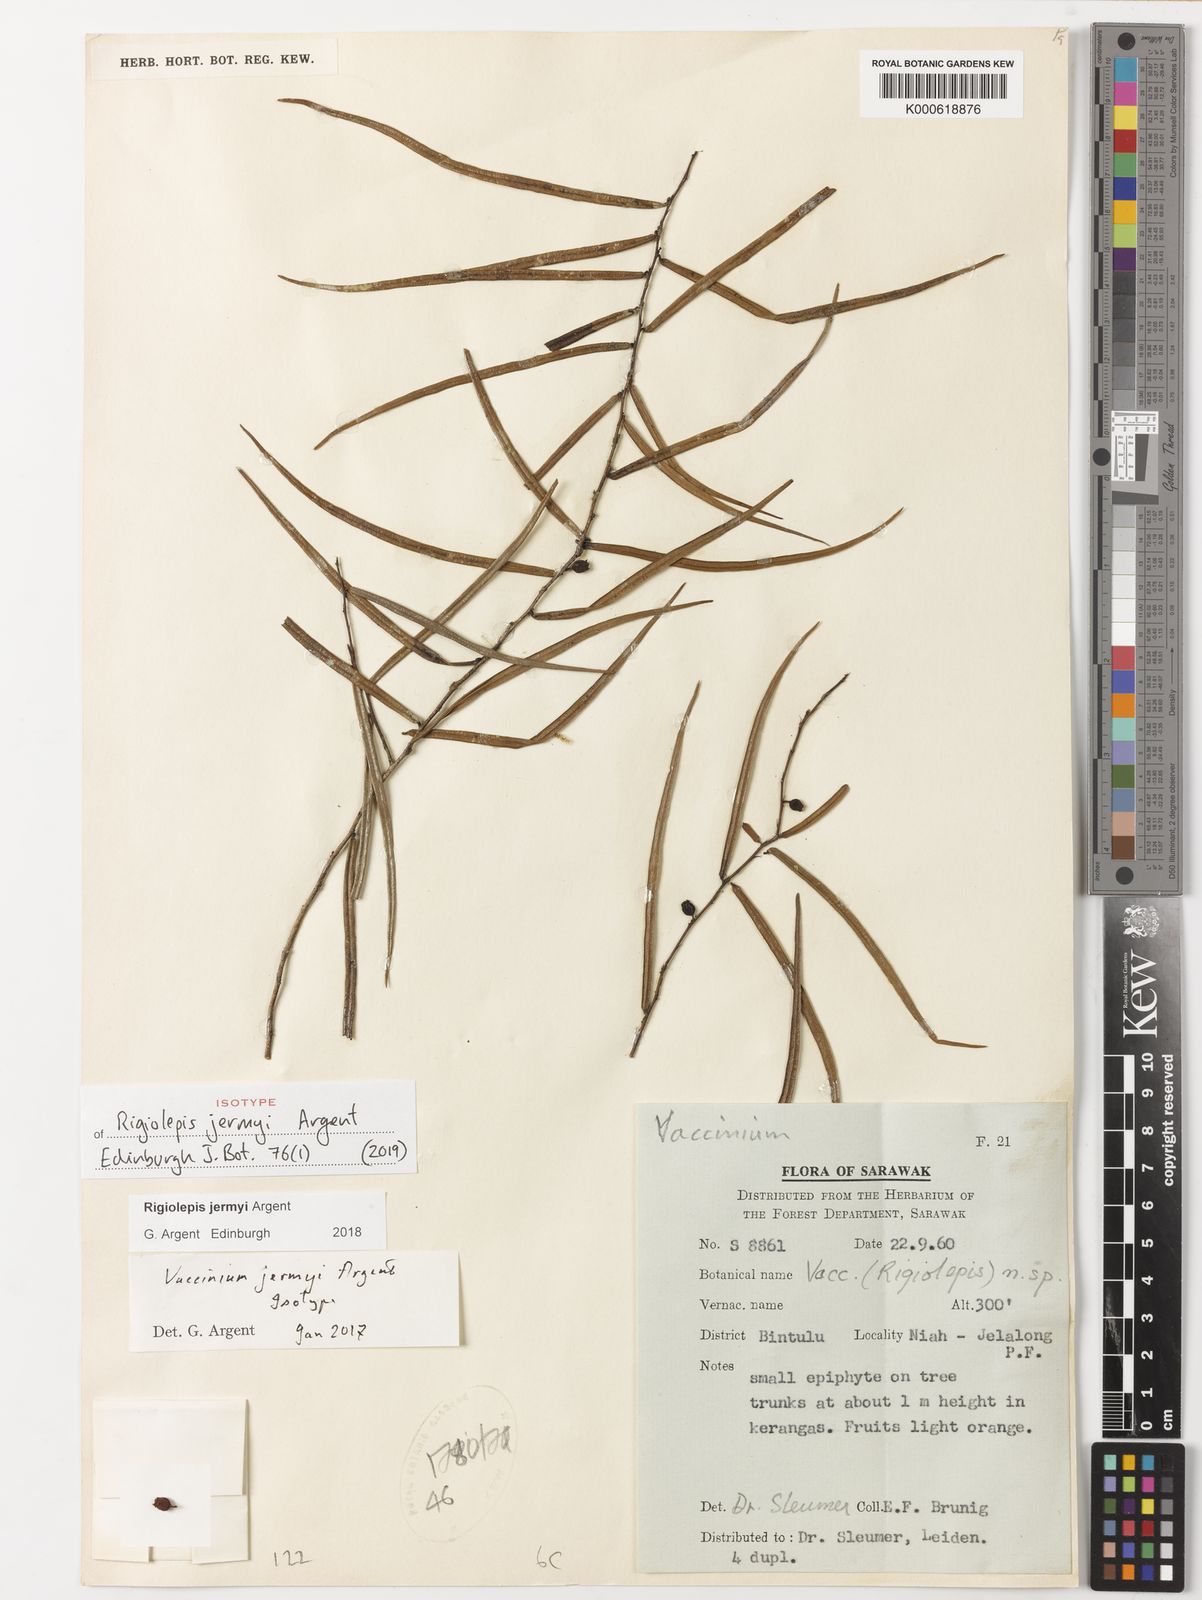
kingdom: Plantae
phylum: Tracheophyta
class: Magnoliopsida
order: Ericales
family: Ericaceae
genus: Rigiolepis
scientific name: Rigiolepis jermyi
